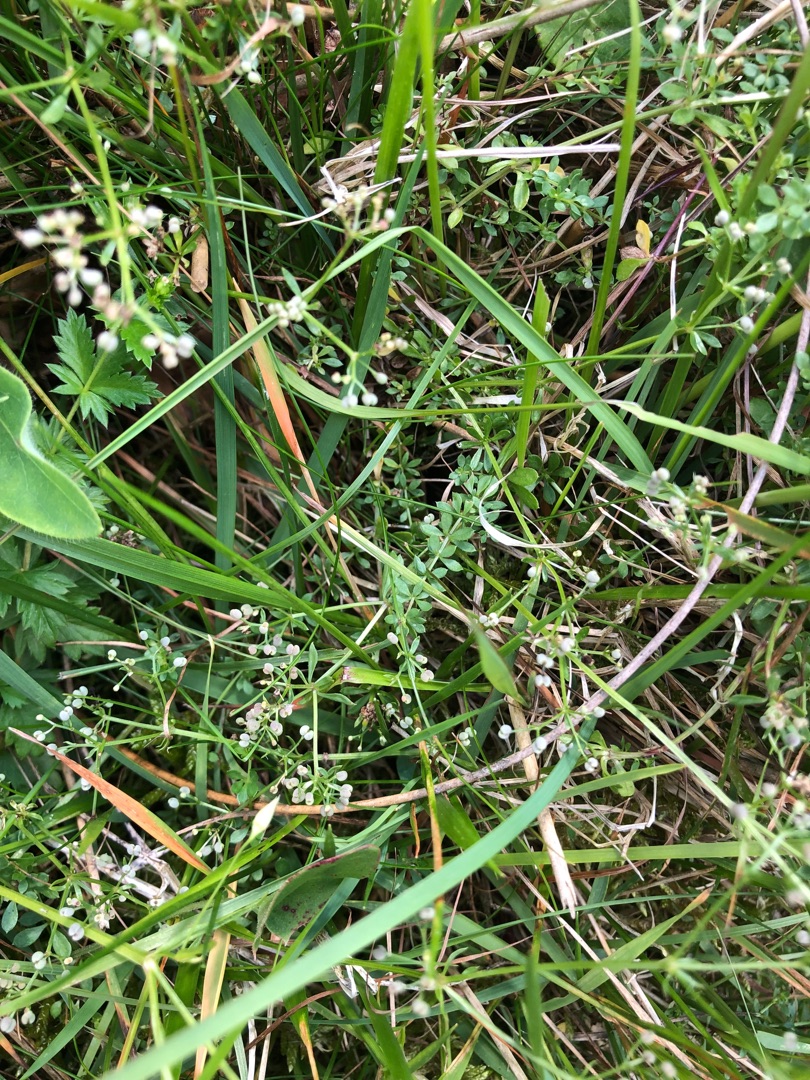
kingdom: Plantae
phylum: Tracheophyta
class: Magnoliopsida
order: Gentianales
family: Rubiaceae
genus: Galium
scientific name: Galium saxatile
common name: Lyng-snerre
